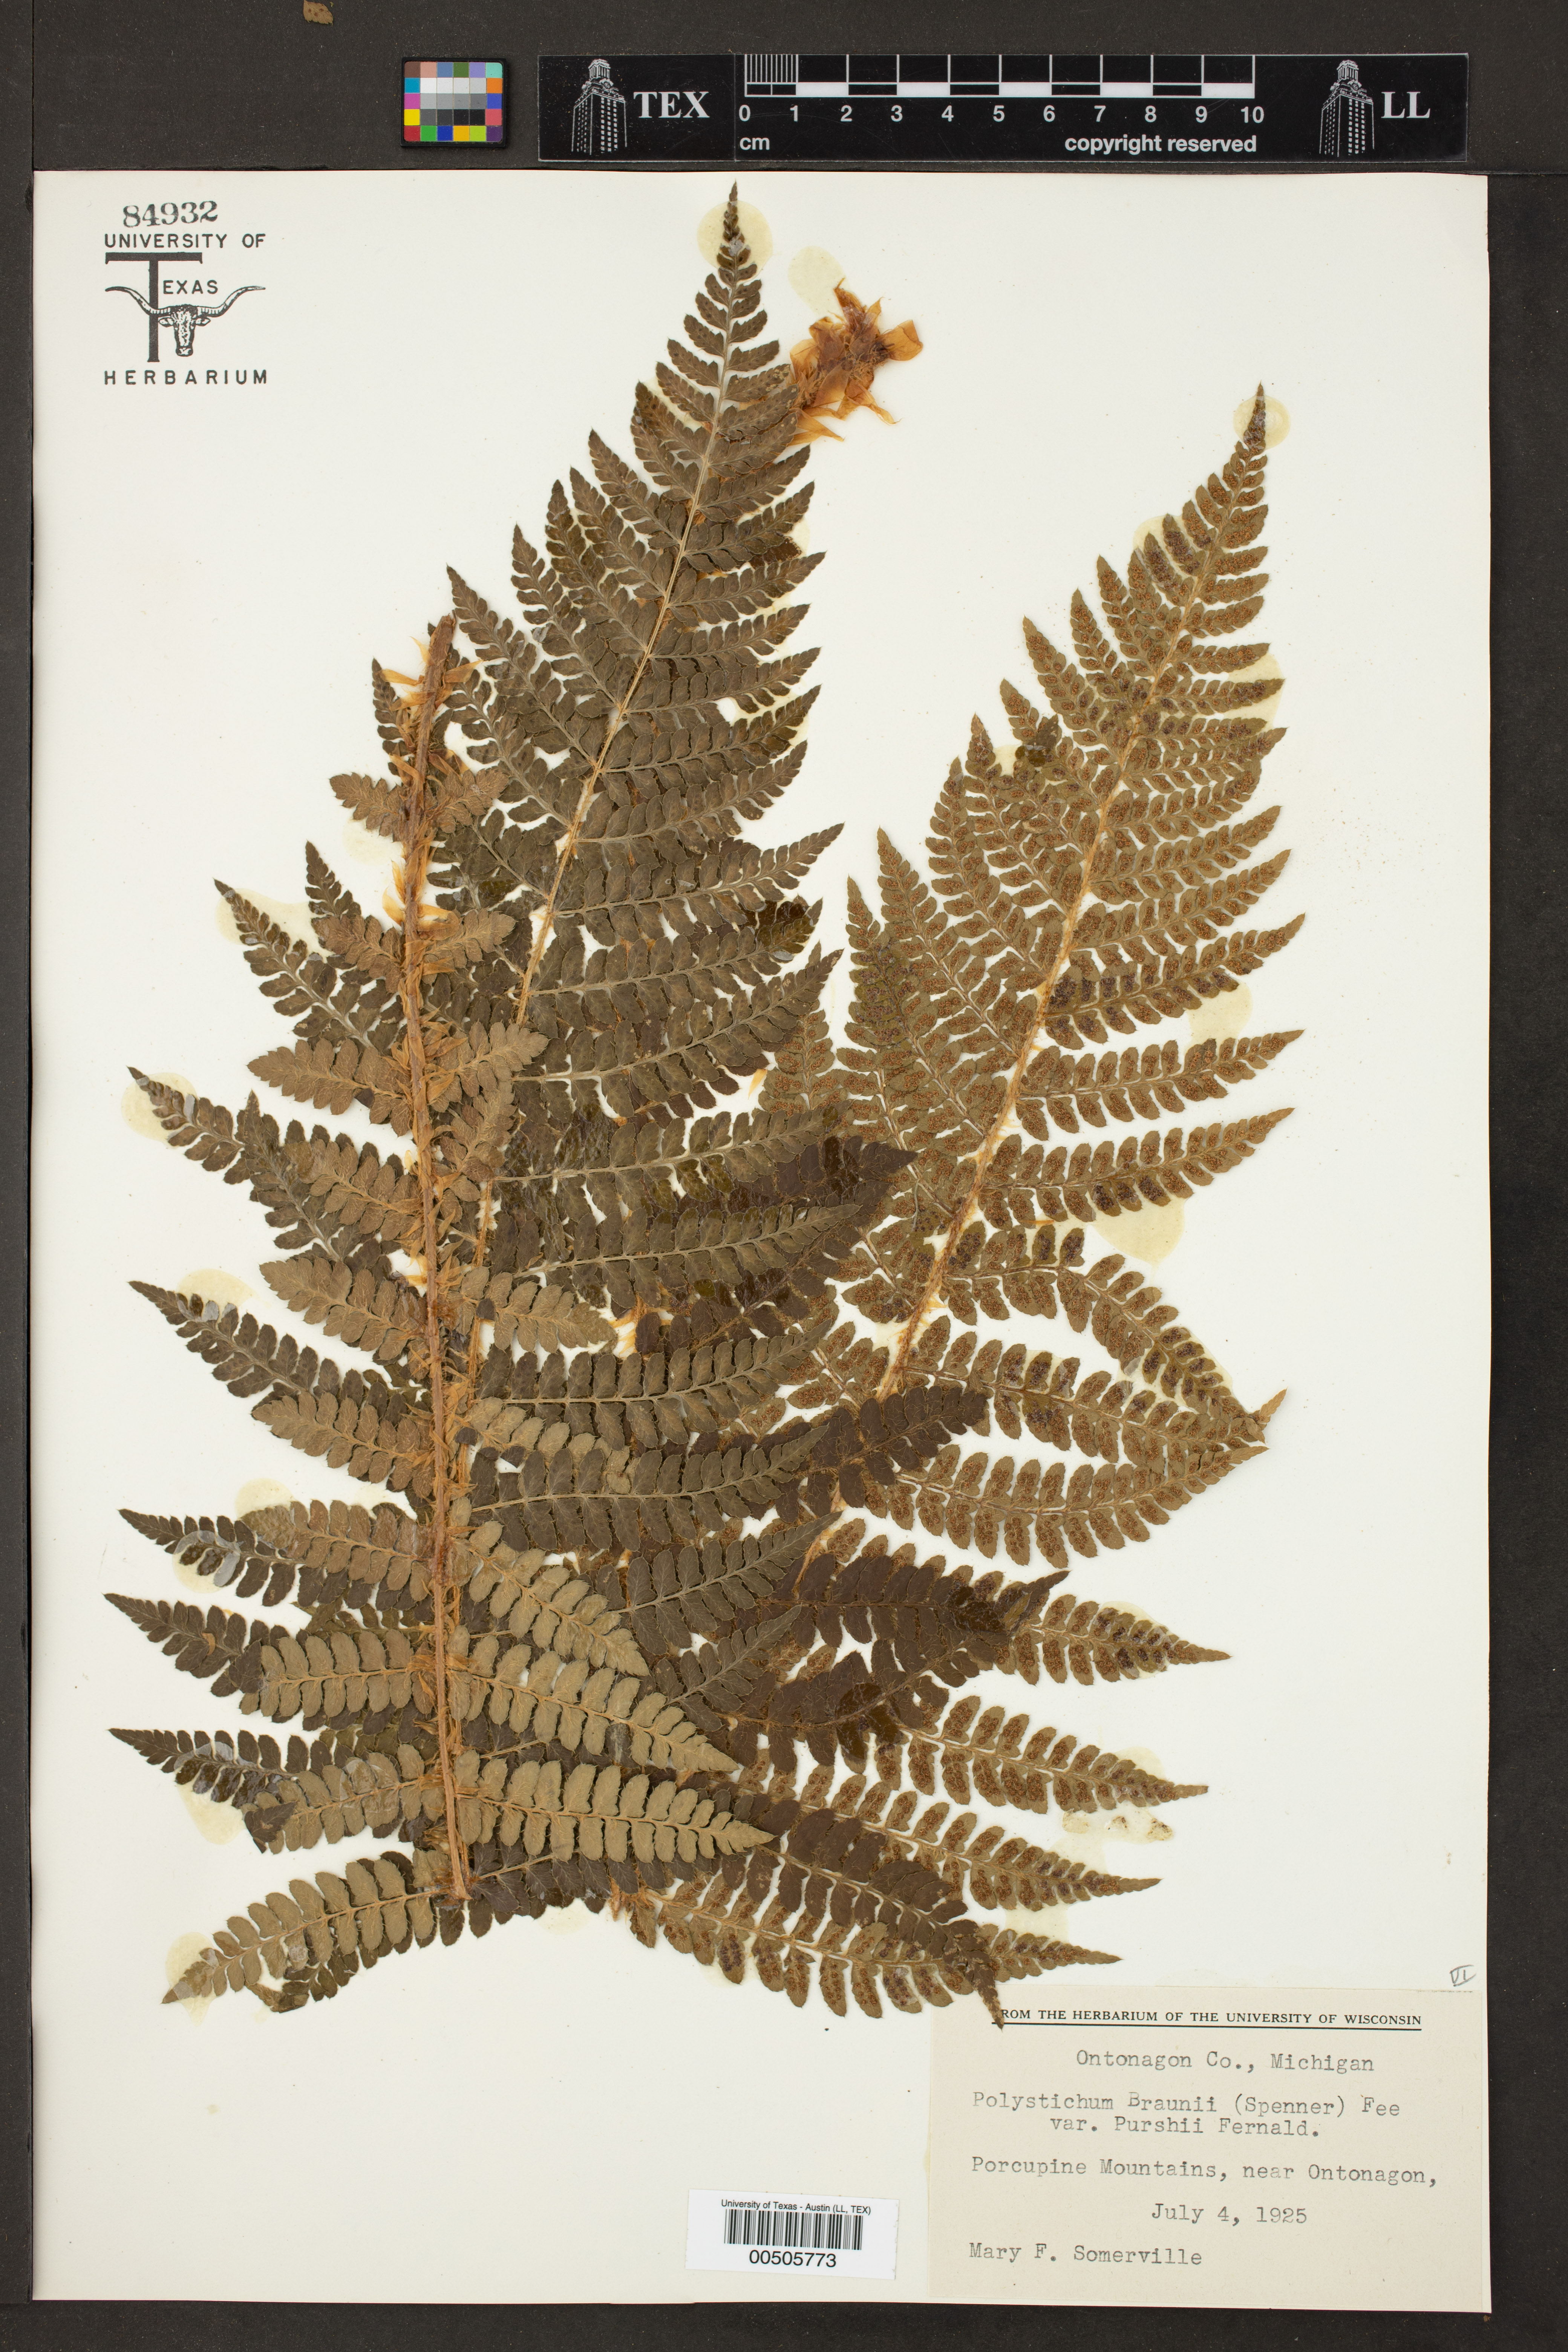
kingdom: Plantae
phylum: Tracheophyta
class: Polypodiopsida
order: Polypodiales
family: Dryopteridaceae
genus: Polystichum
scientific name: Polystichum braunii
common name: Braun's holly fern
